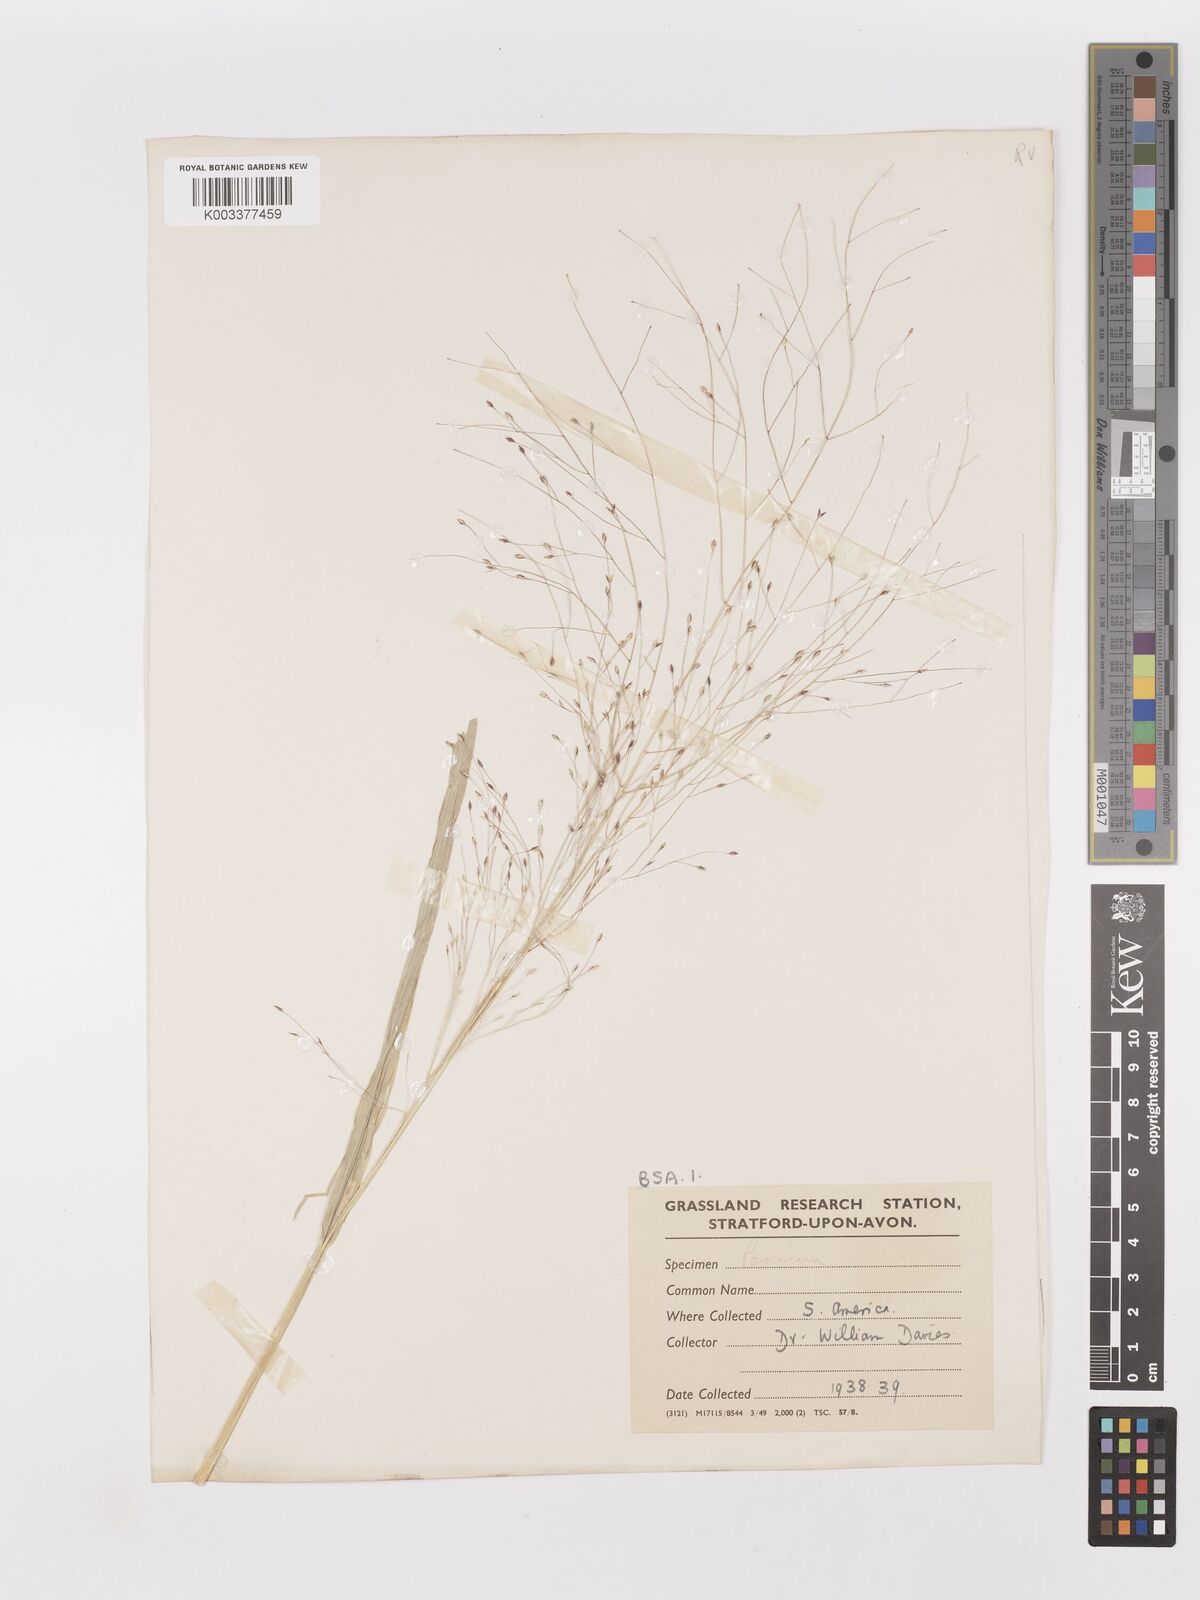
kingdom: Plantae
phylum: Tracheophyta
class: Liliopsida
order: Poales
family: Poaceae
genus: Panicum
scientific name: Panicum bergii
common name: Berg's panicgrass
